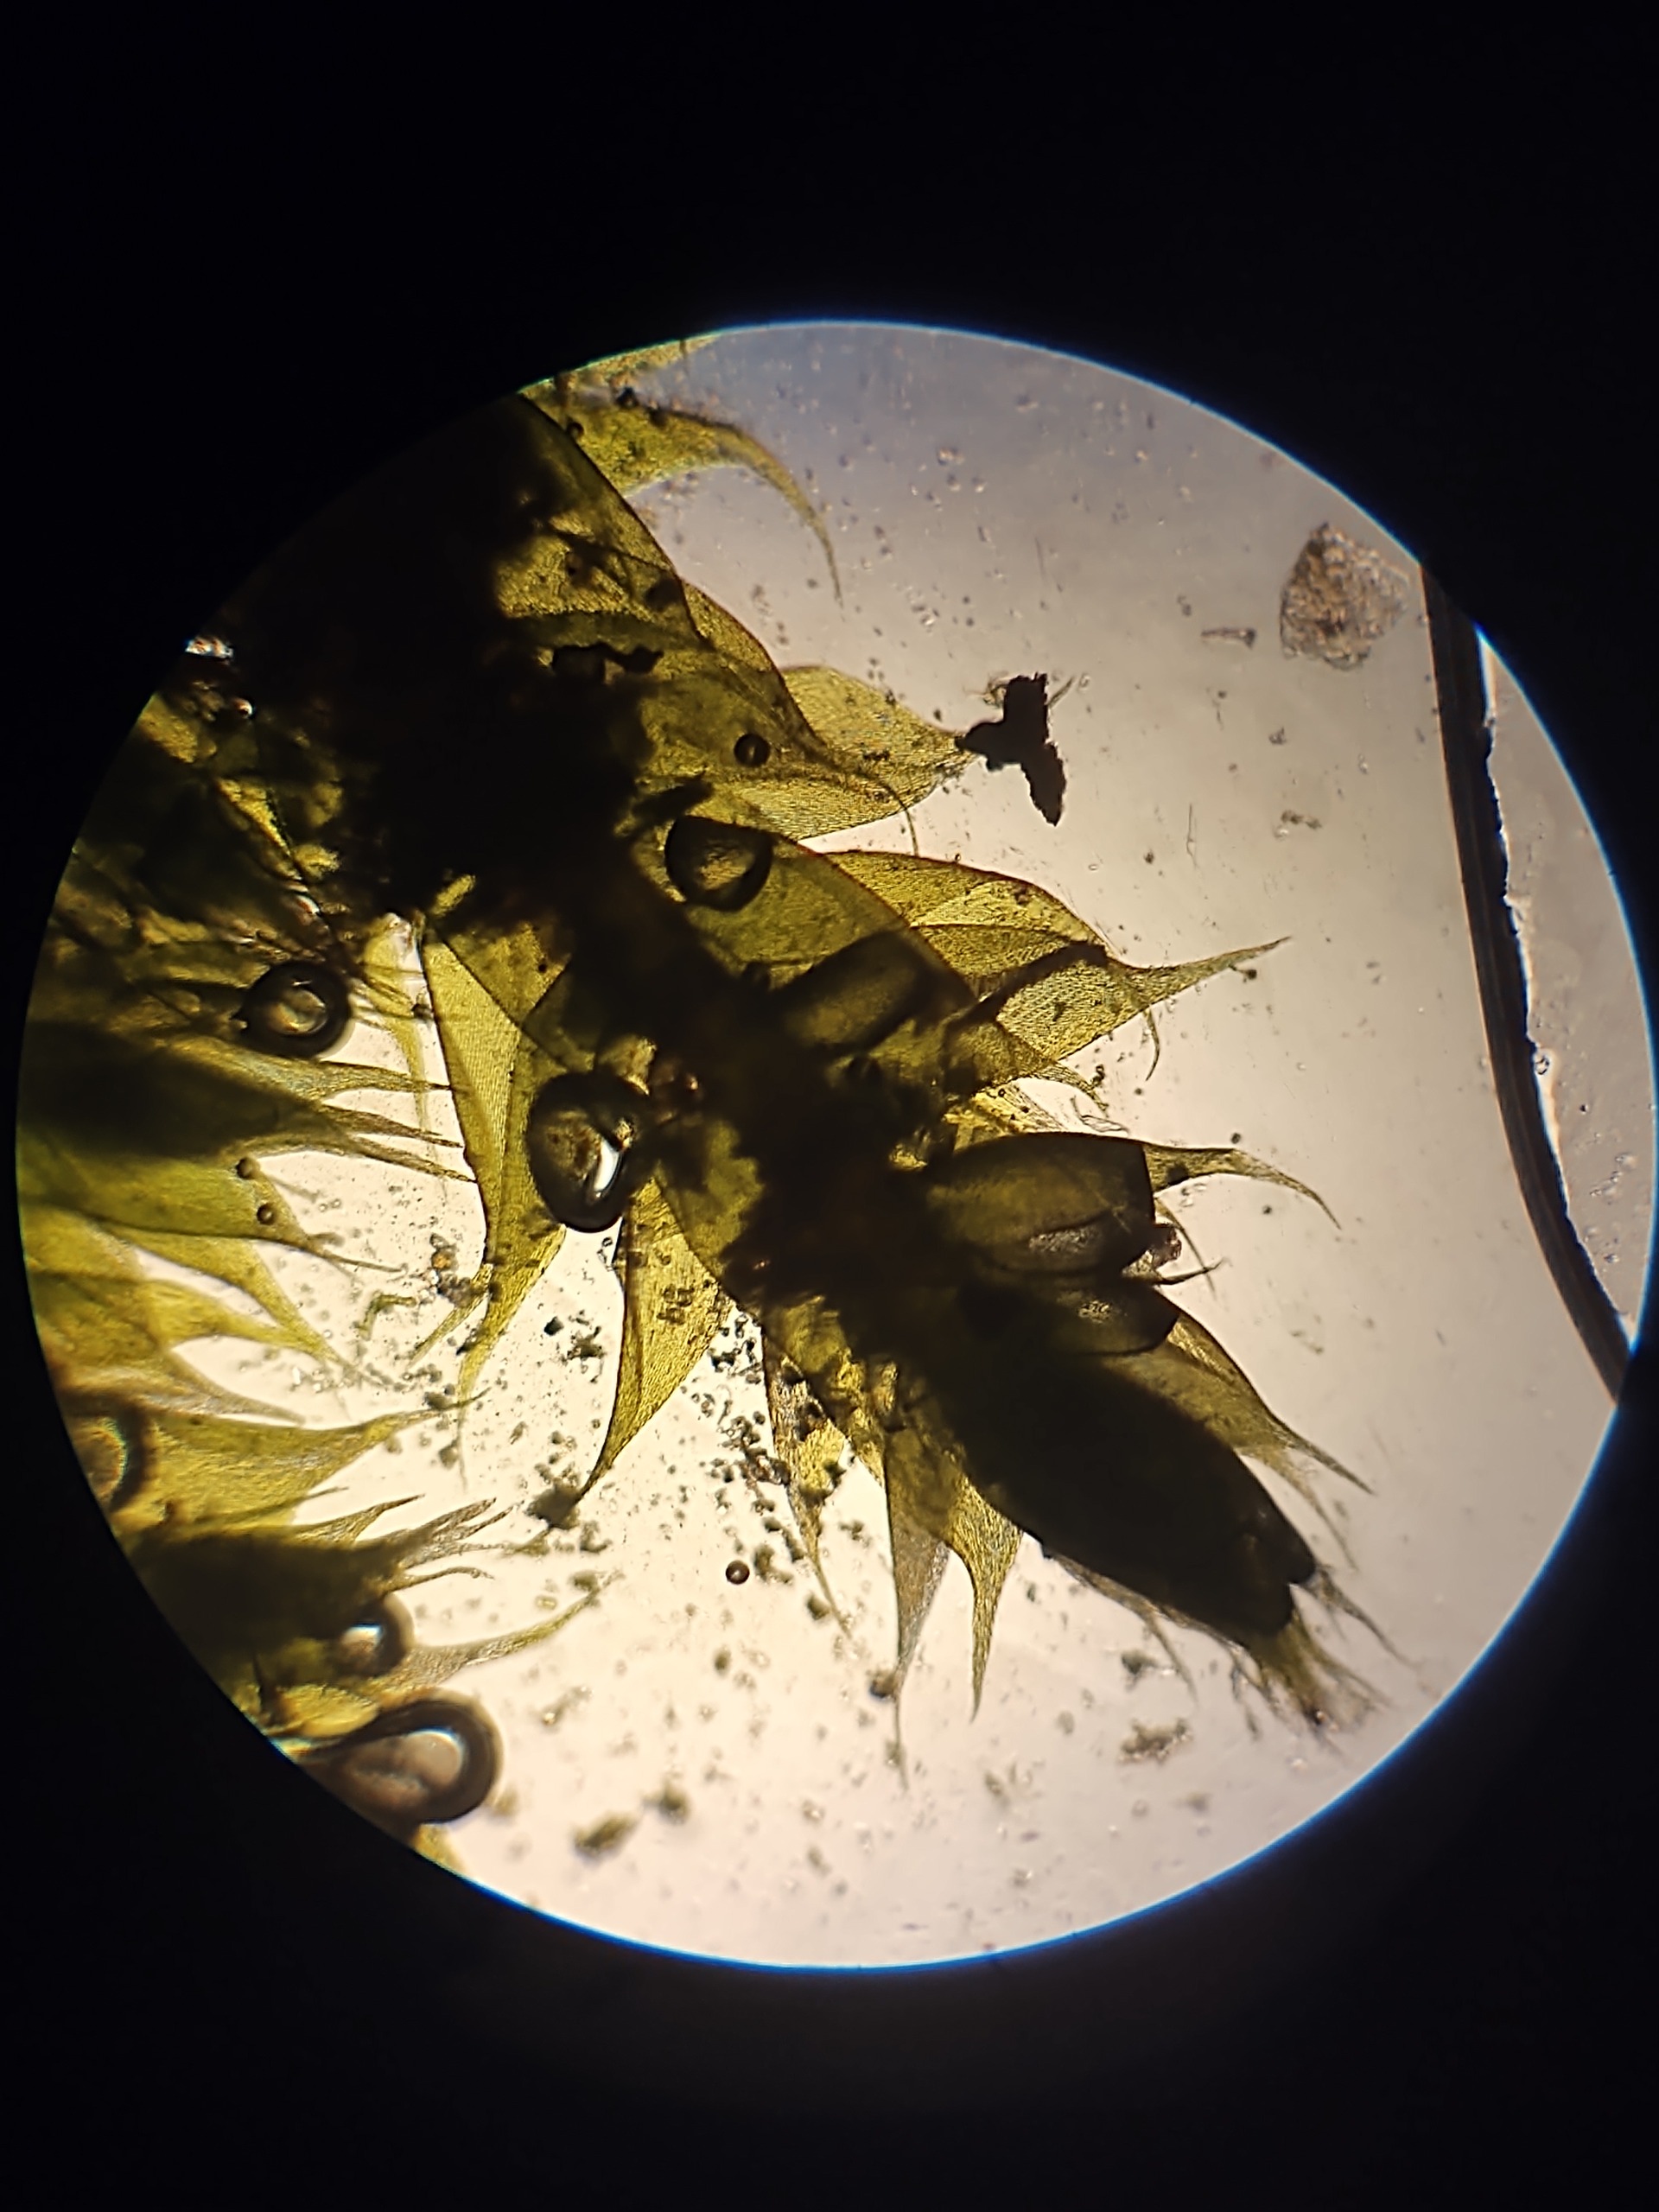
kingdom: Plantae
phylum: Bryophyta
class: Bryopsida
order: Hypnales
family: Hypnaceae
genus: Hypnum
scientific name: Hypnum cupressiforme
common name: Almindelig cypresmos
